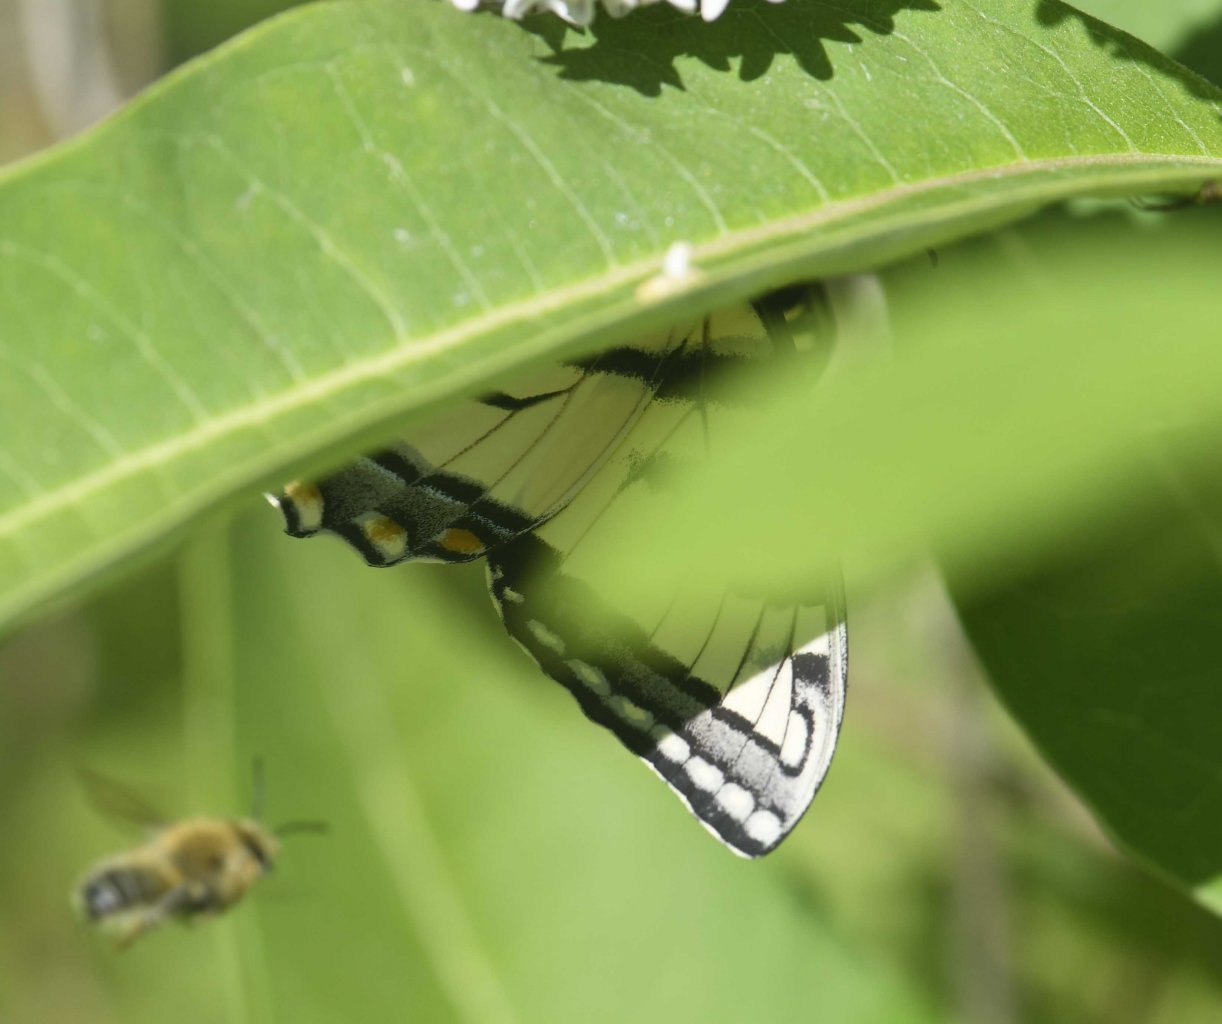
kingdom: Animalia
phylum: Arthropoda
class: Insecta
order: Lepidoptera
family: Papilionidae
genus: Pterourus
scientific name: Pterourus
